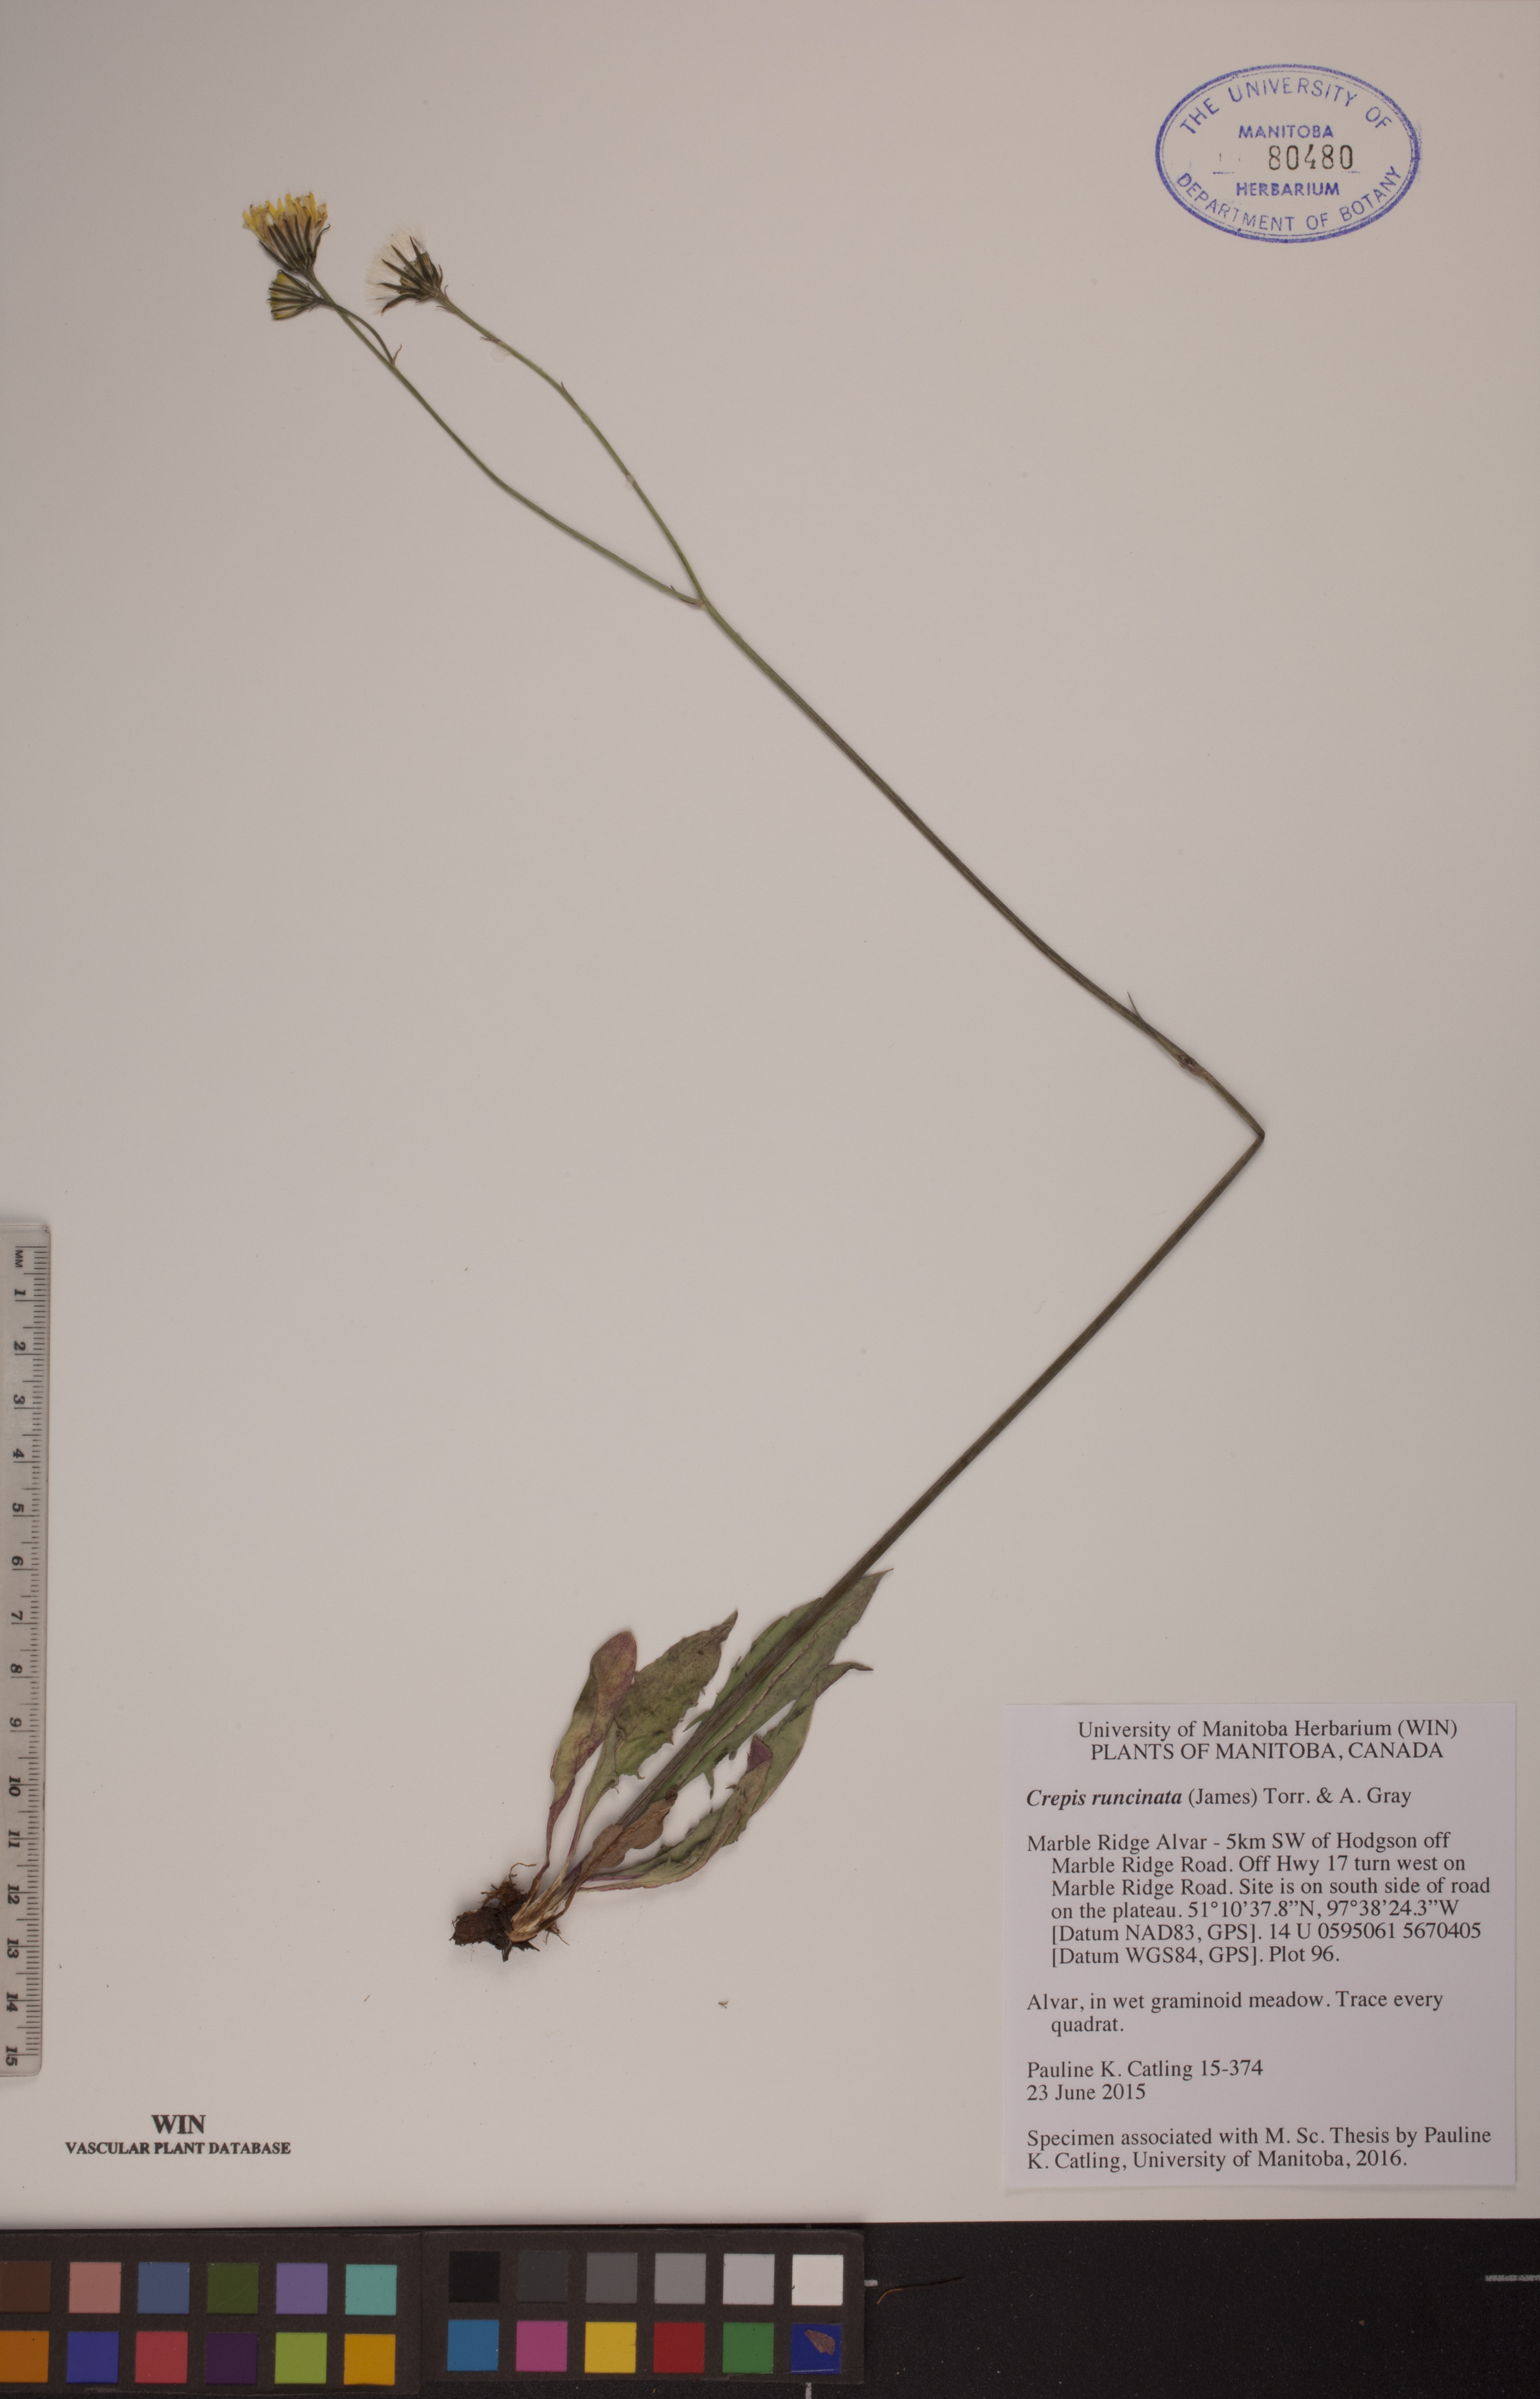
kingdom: Plantae
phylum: Tracheophyta
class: Magnoliopsida
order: Asterales
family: Asteraceae
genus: Crepis
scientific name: Crepis runcinata
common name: Dandelion hawksbeard
